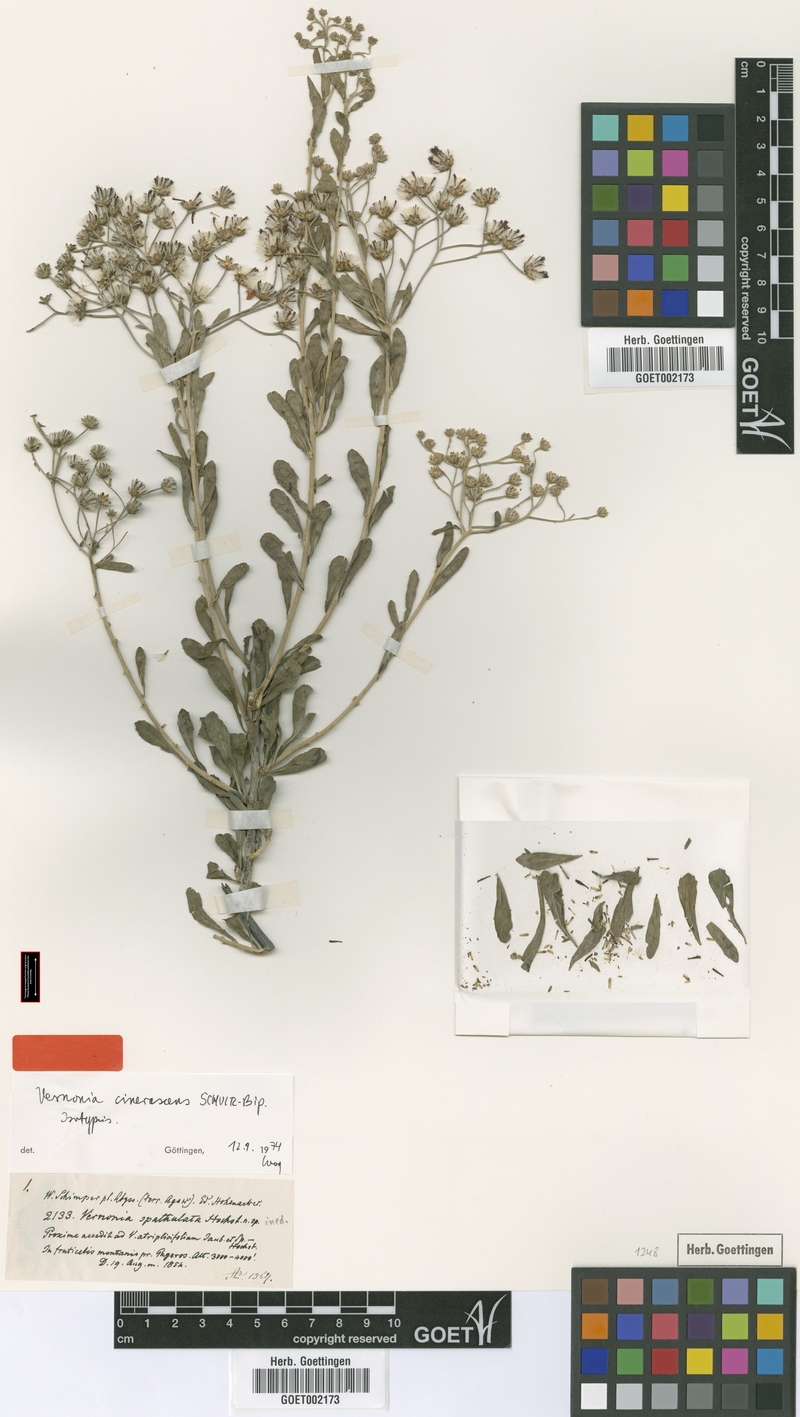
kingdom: Plantae
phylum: Tracheophyta
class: Magnoliopsida
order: Asterales
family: Asteraceae
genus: Orbivestus
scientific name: Orbivestus cinerascens
